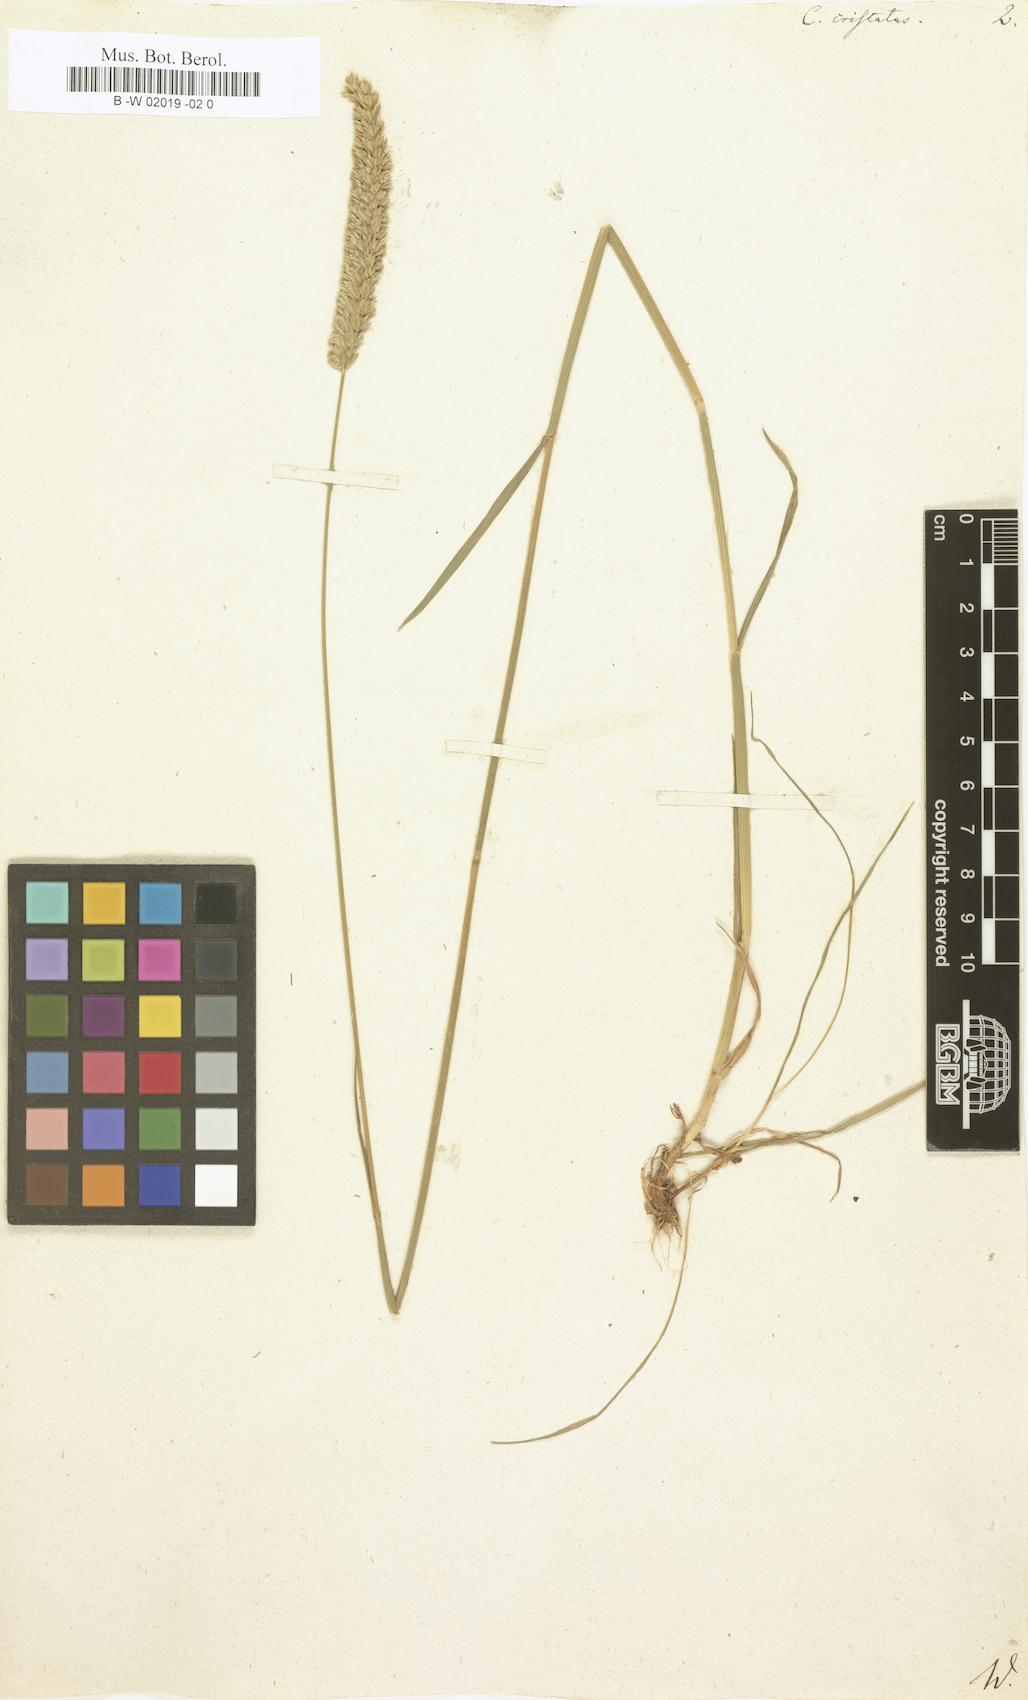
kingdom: Plantae
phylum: Tracheophyta
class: Liliopsida
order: Poales
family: Poaceae
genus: Cynosurus
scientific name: Cynosurus cristatus
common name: Crested dog's-tail
